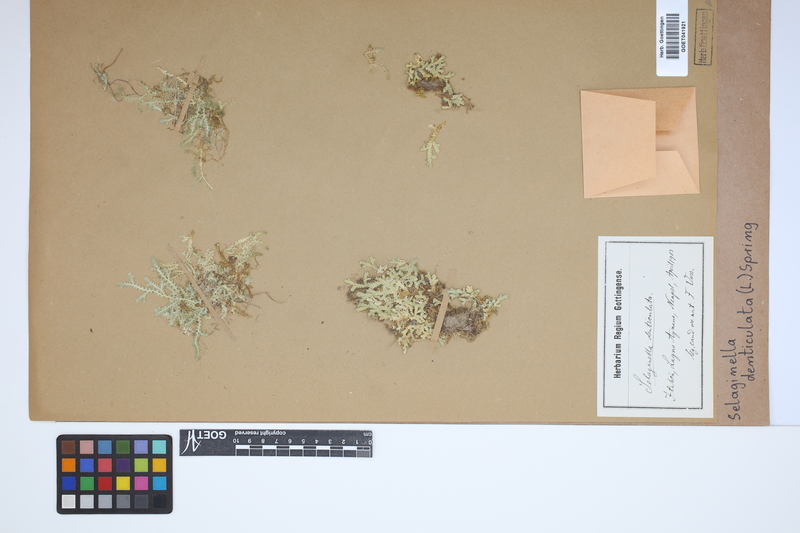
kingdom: Plantae
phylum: Tracheophyta
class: Lycopodiopsida
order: Selaginellales
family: Selaginellaceae
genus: Selaginella
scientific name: Selaginella denticulata
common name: Toothed-leaved clubmoss
